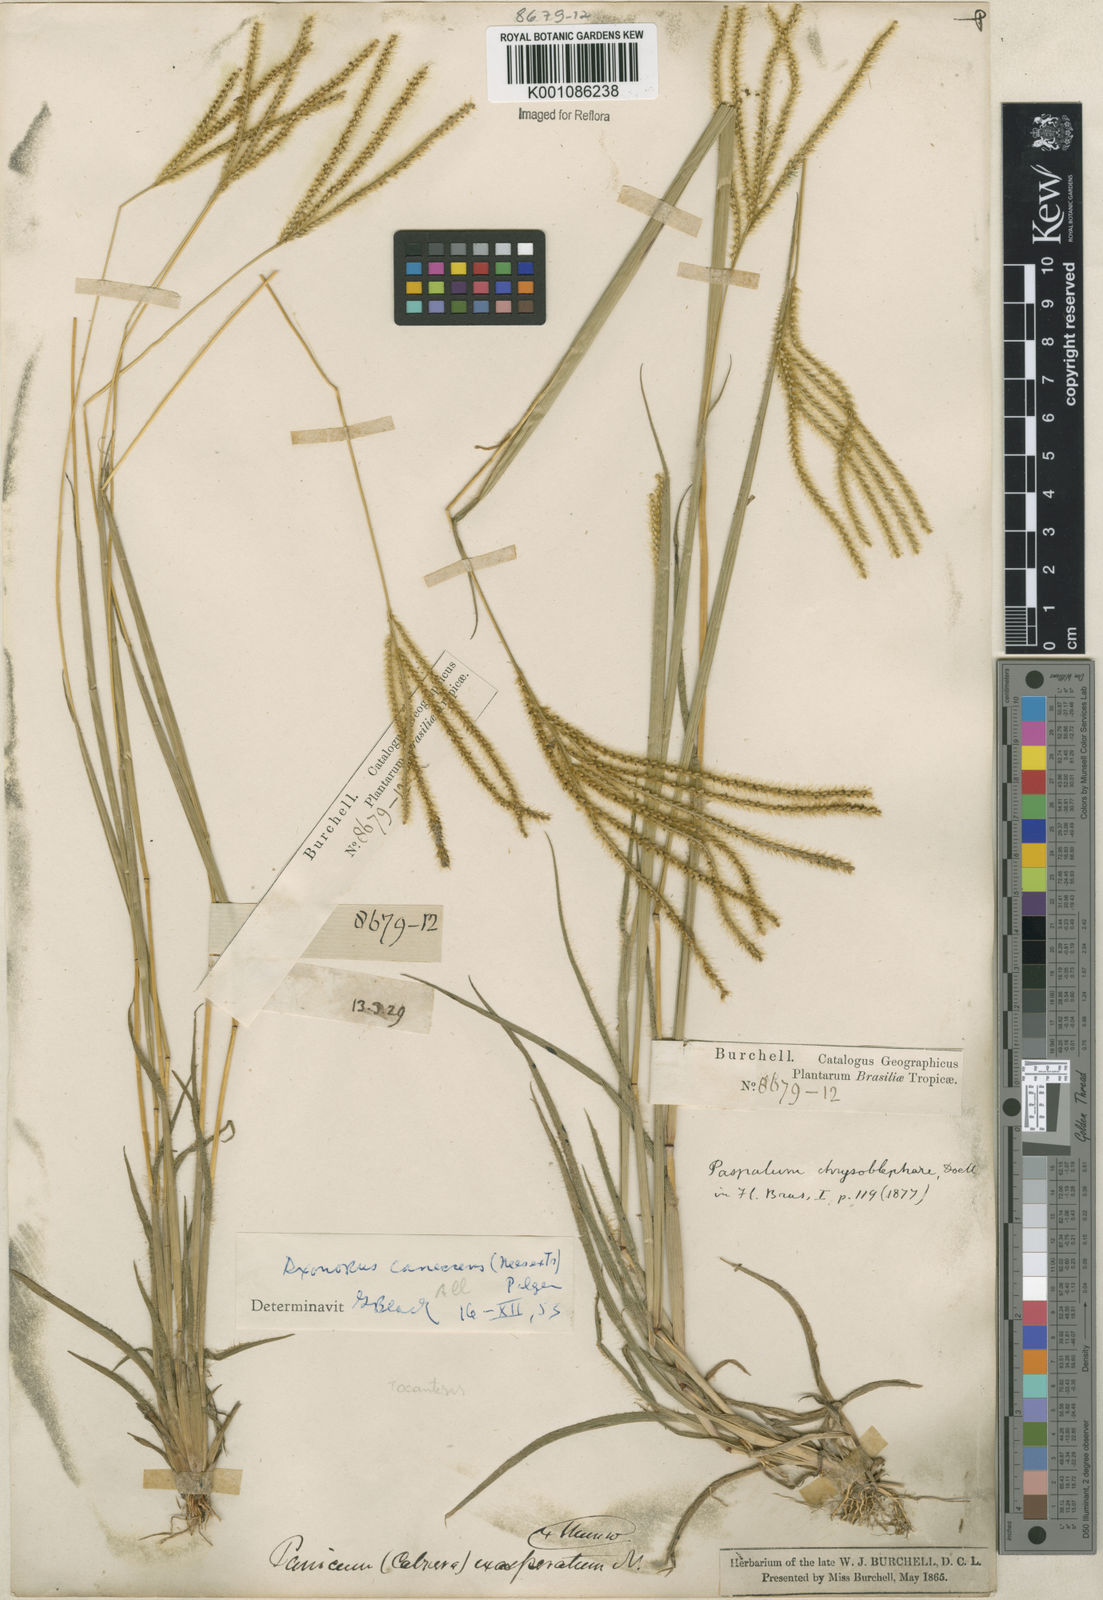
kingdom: Plantae
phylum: Tracheophyta
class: Liliopsida
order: Poales
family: Poaceae
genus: Axonopus
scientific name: Axonopus aureus
